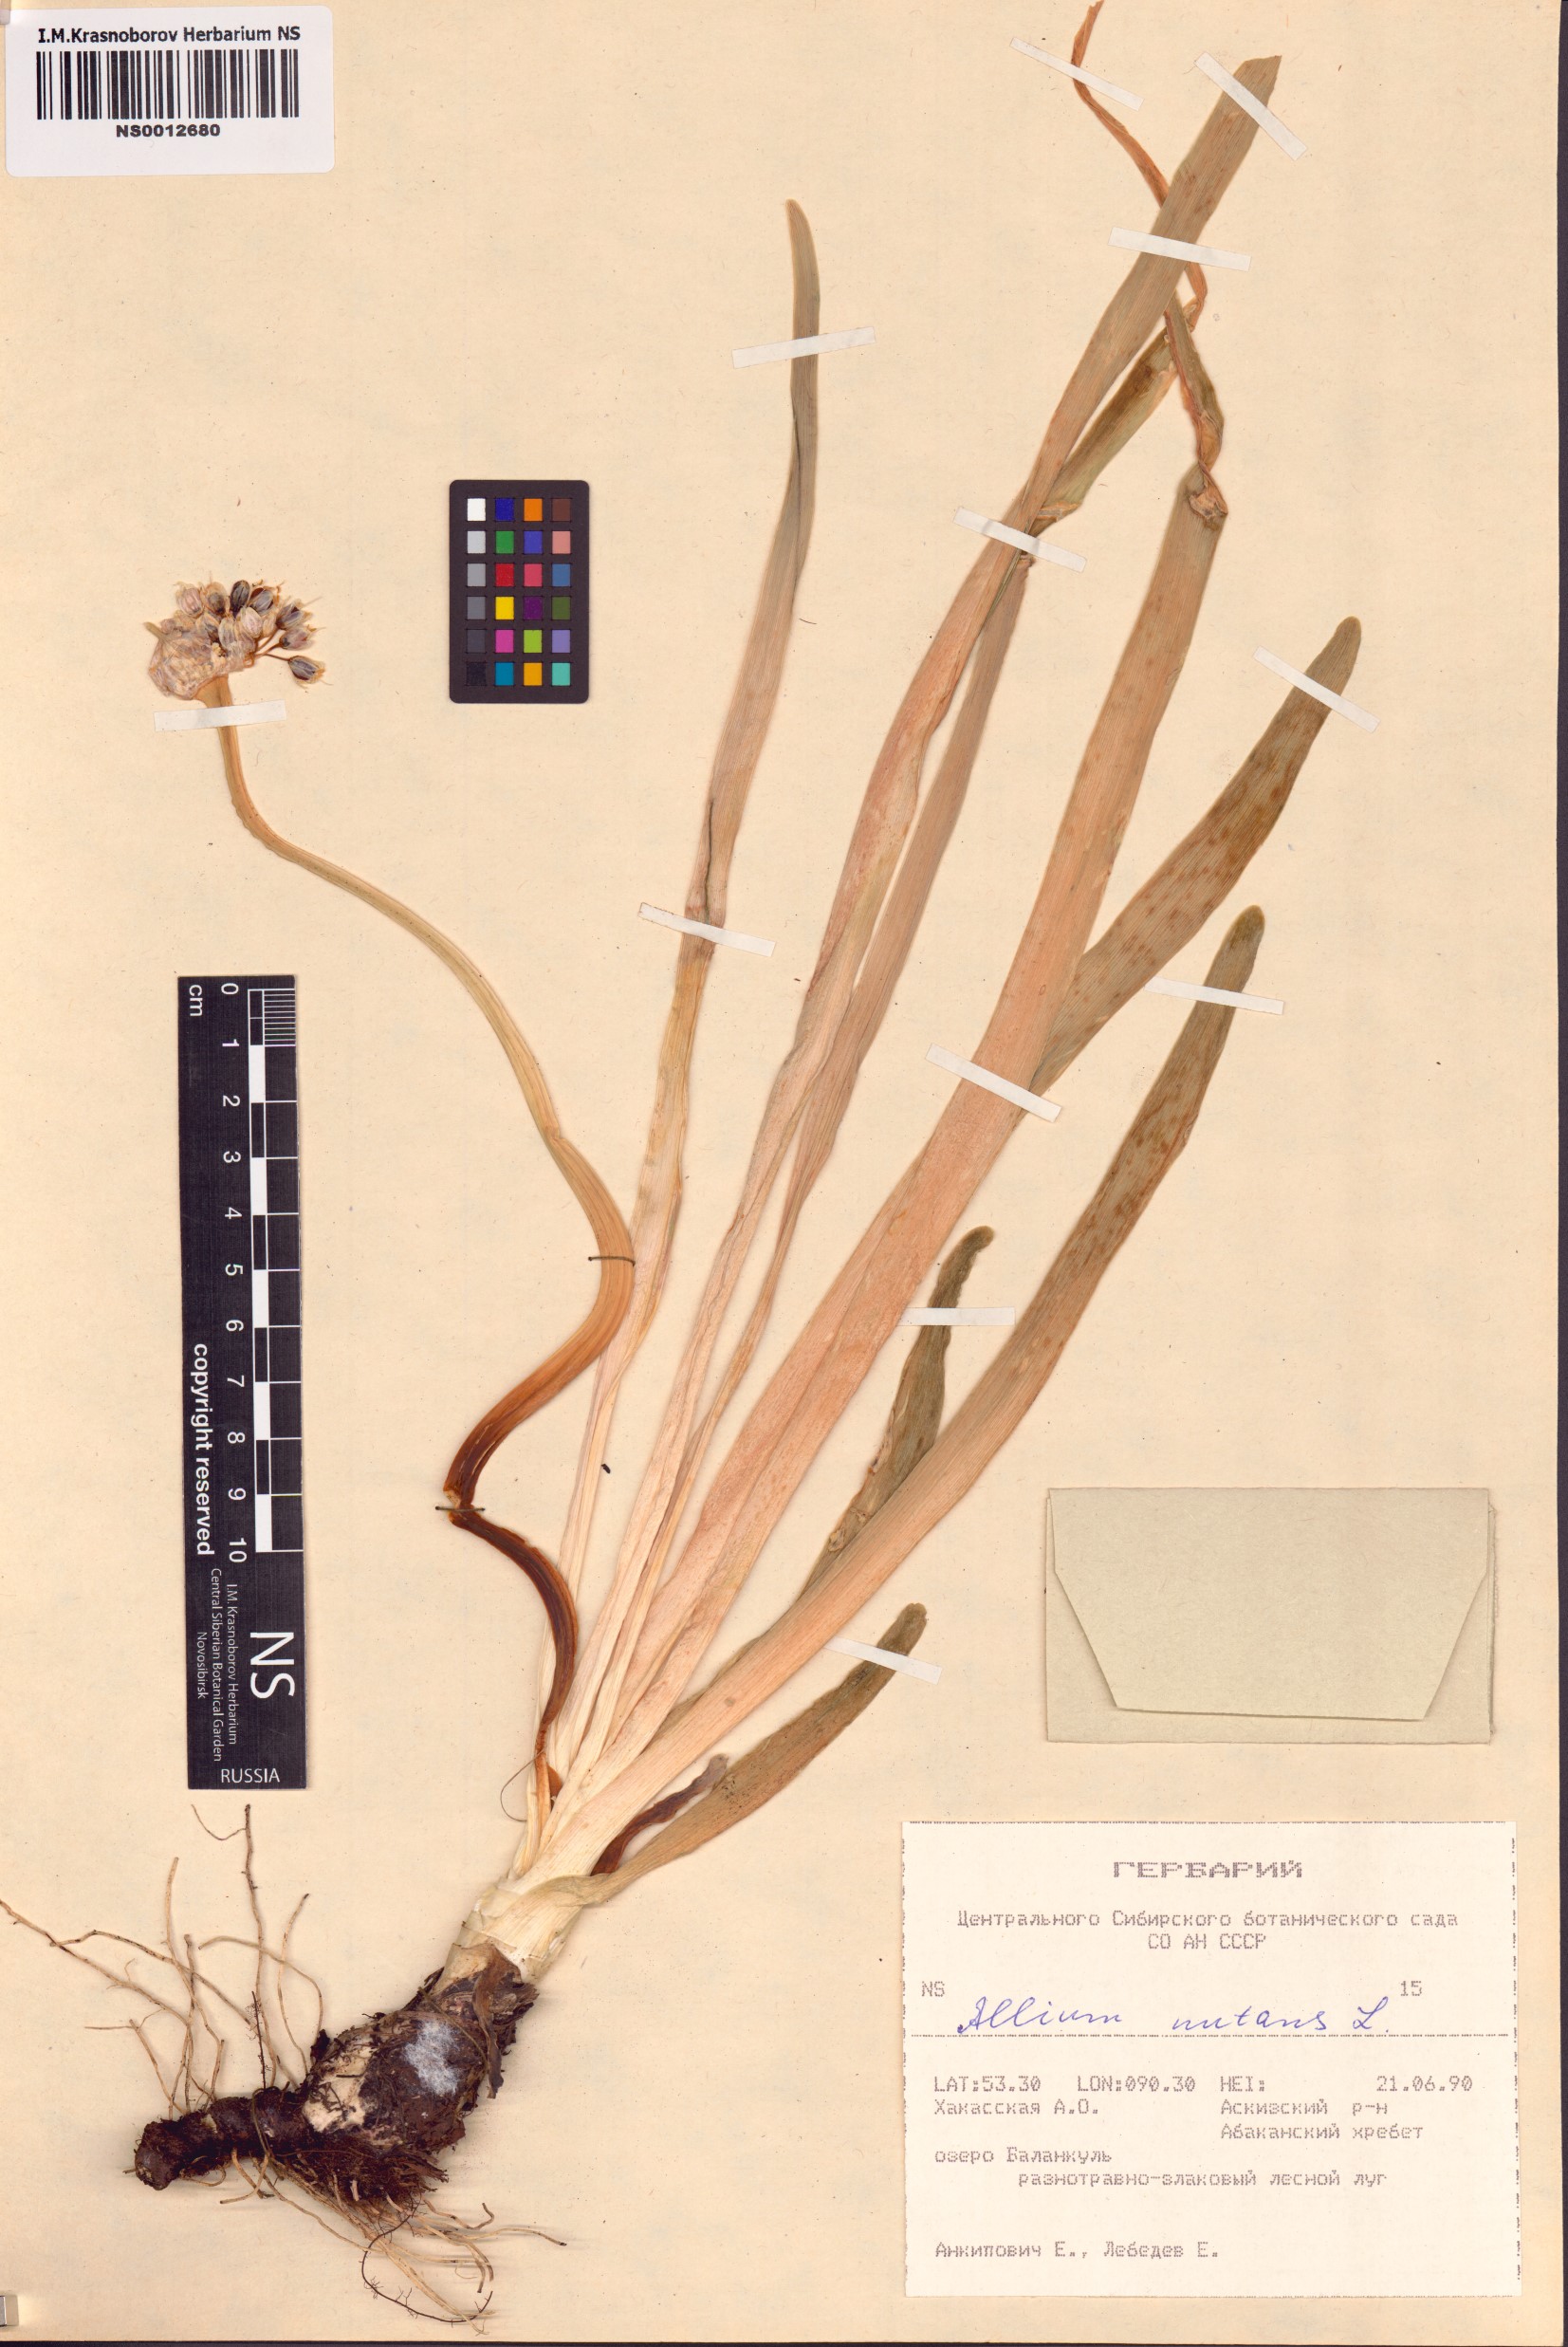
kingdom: Plantae
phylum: Tracheophyta
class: Liliopsida
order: Asparagales
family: Amaryllidaceae
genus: Allium
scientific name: Allium nutans
